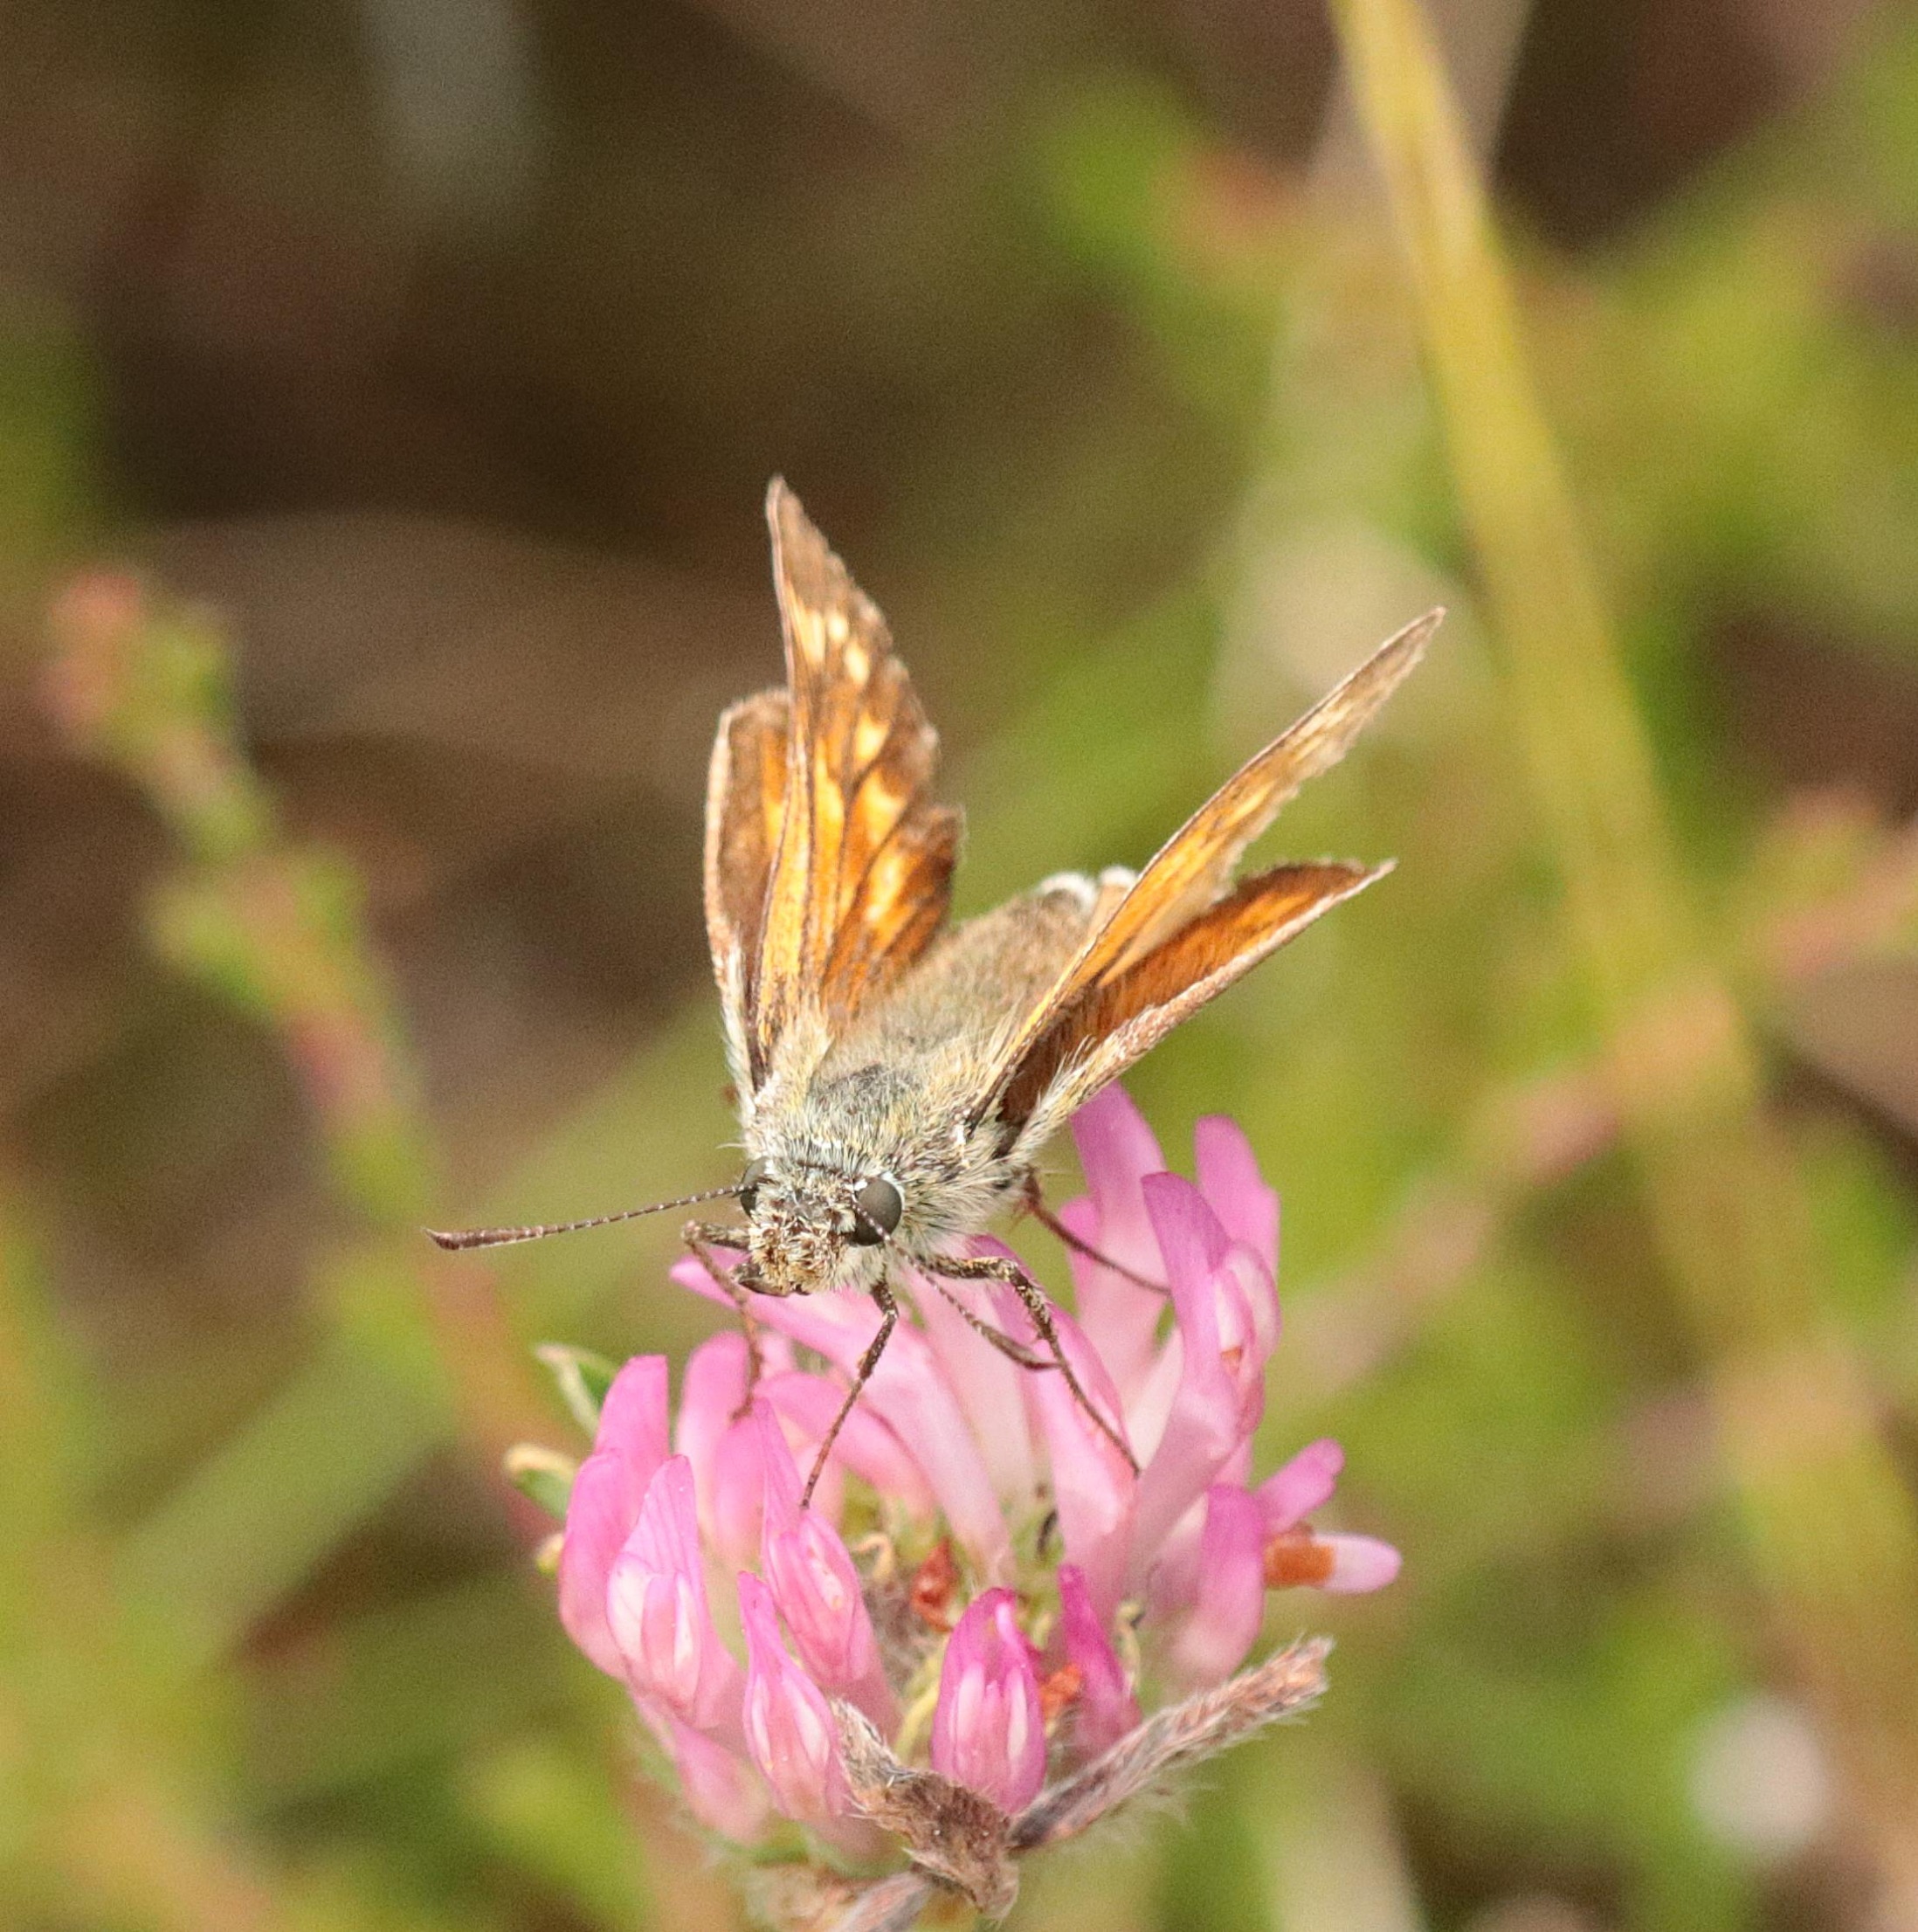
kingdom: Animalia
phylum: Arthropoda
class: Insecta
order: Lepidoptera
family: Hesperiidae
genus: Ochlodes
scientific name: Ochlodes venata
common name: Stor bredpande
